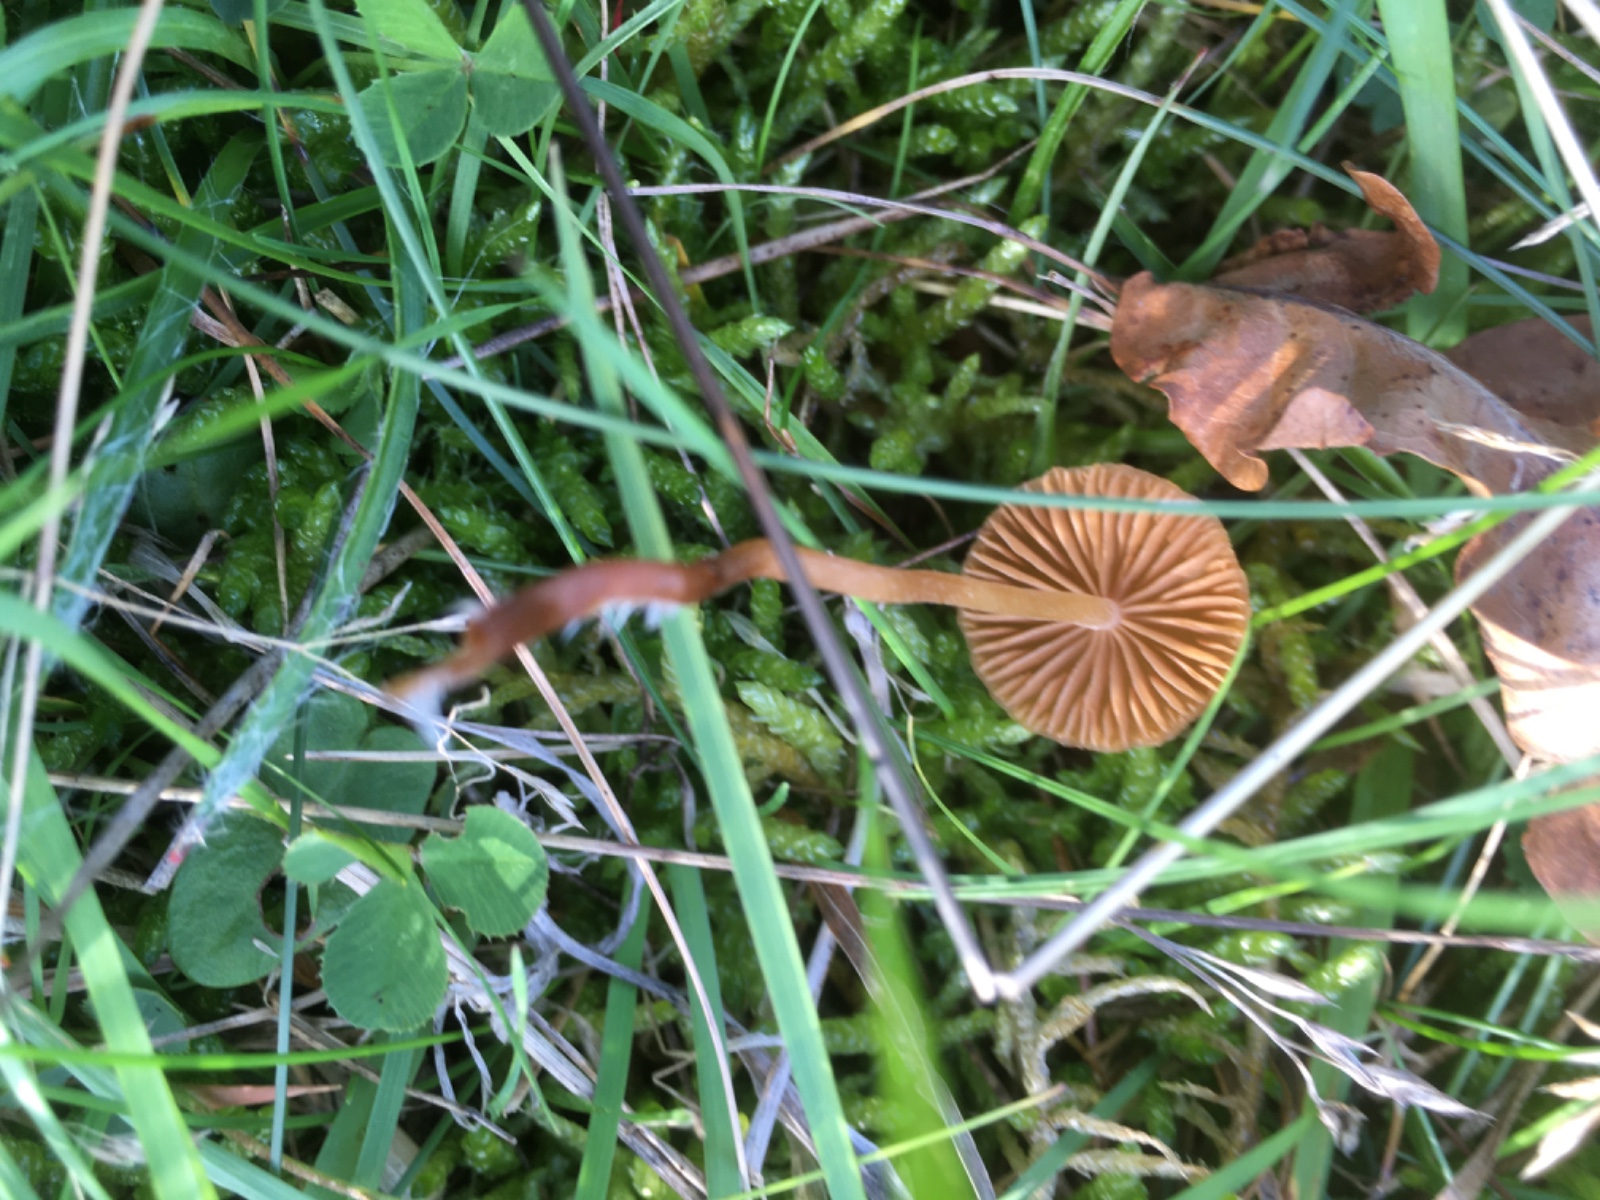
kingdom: Fungi
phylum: Basidiomycota
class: Agaricomycetes
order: Agaricales
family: Hymenogastraceae
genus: Galerina
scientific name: Galerina
